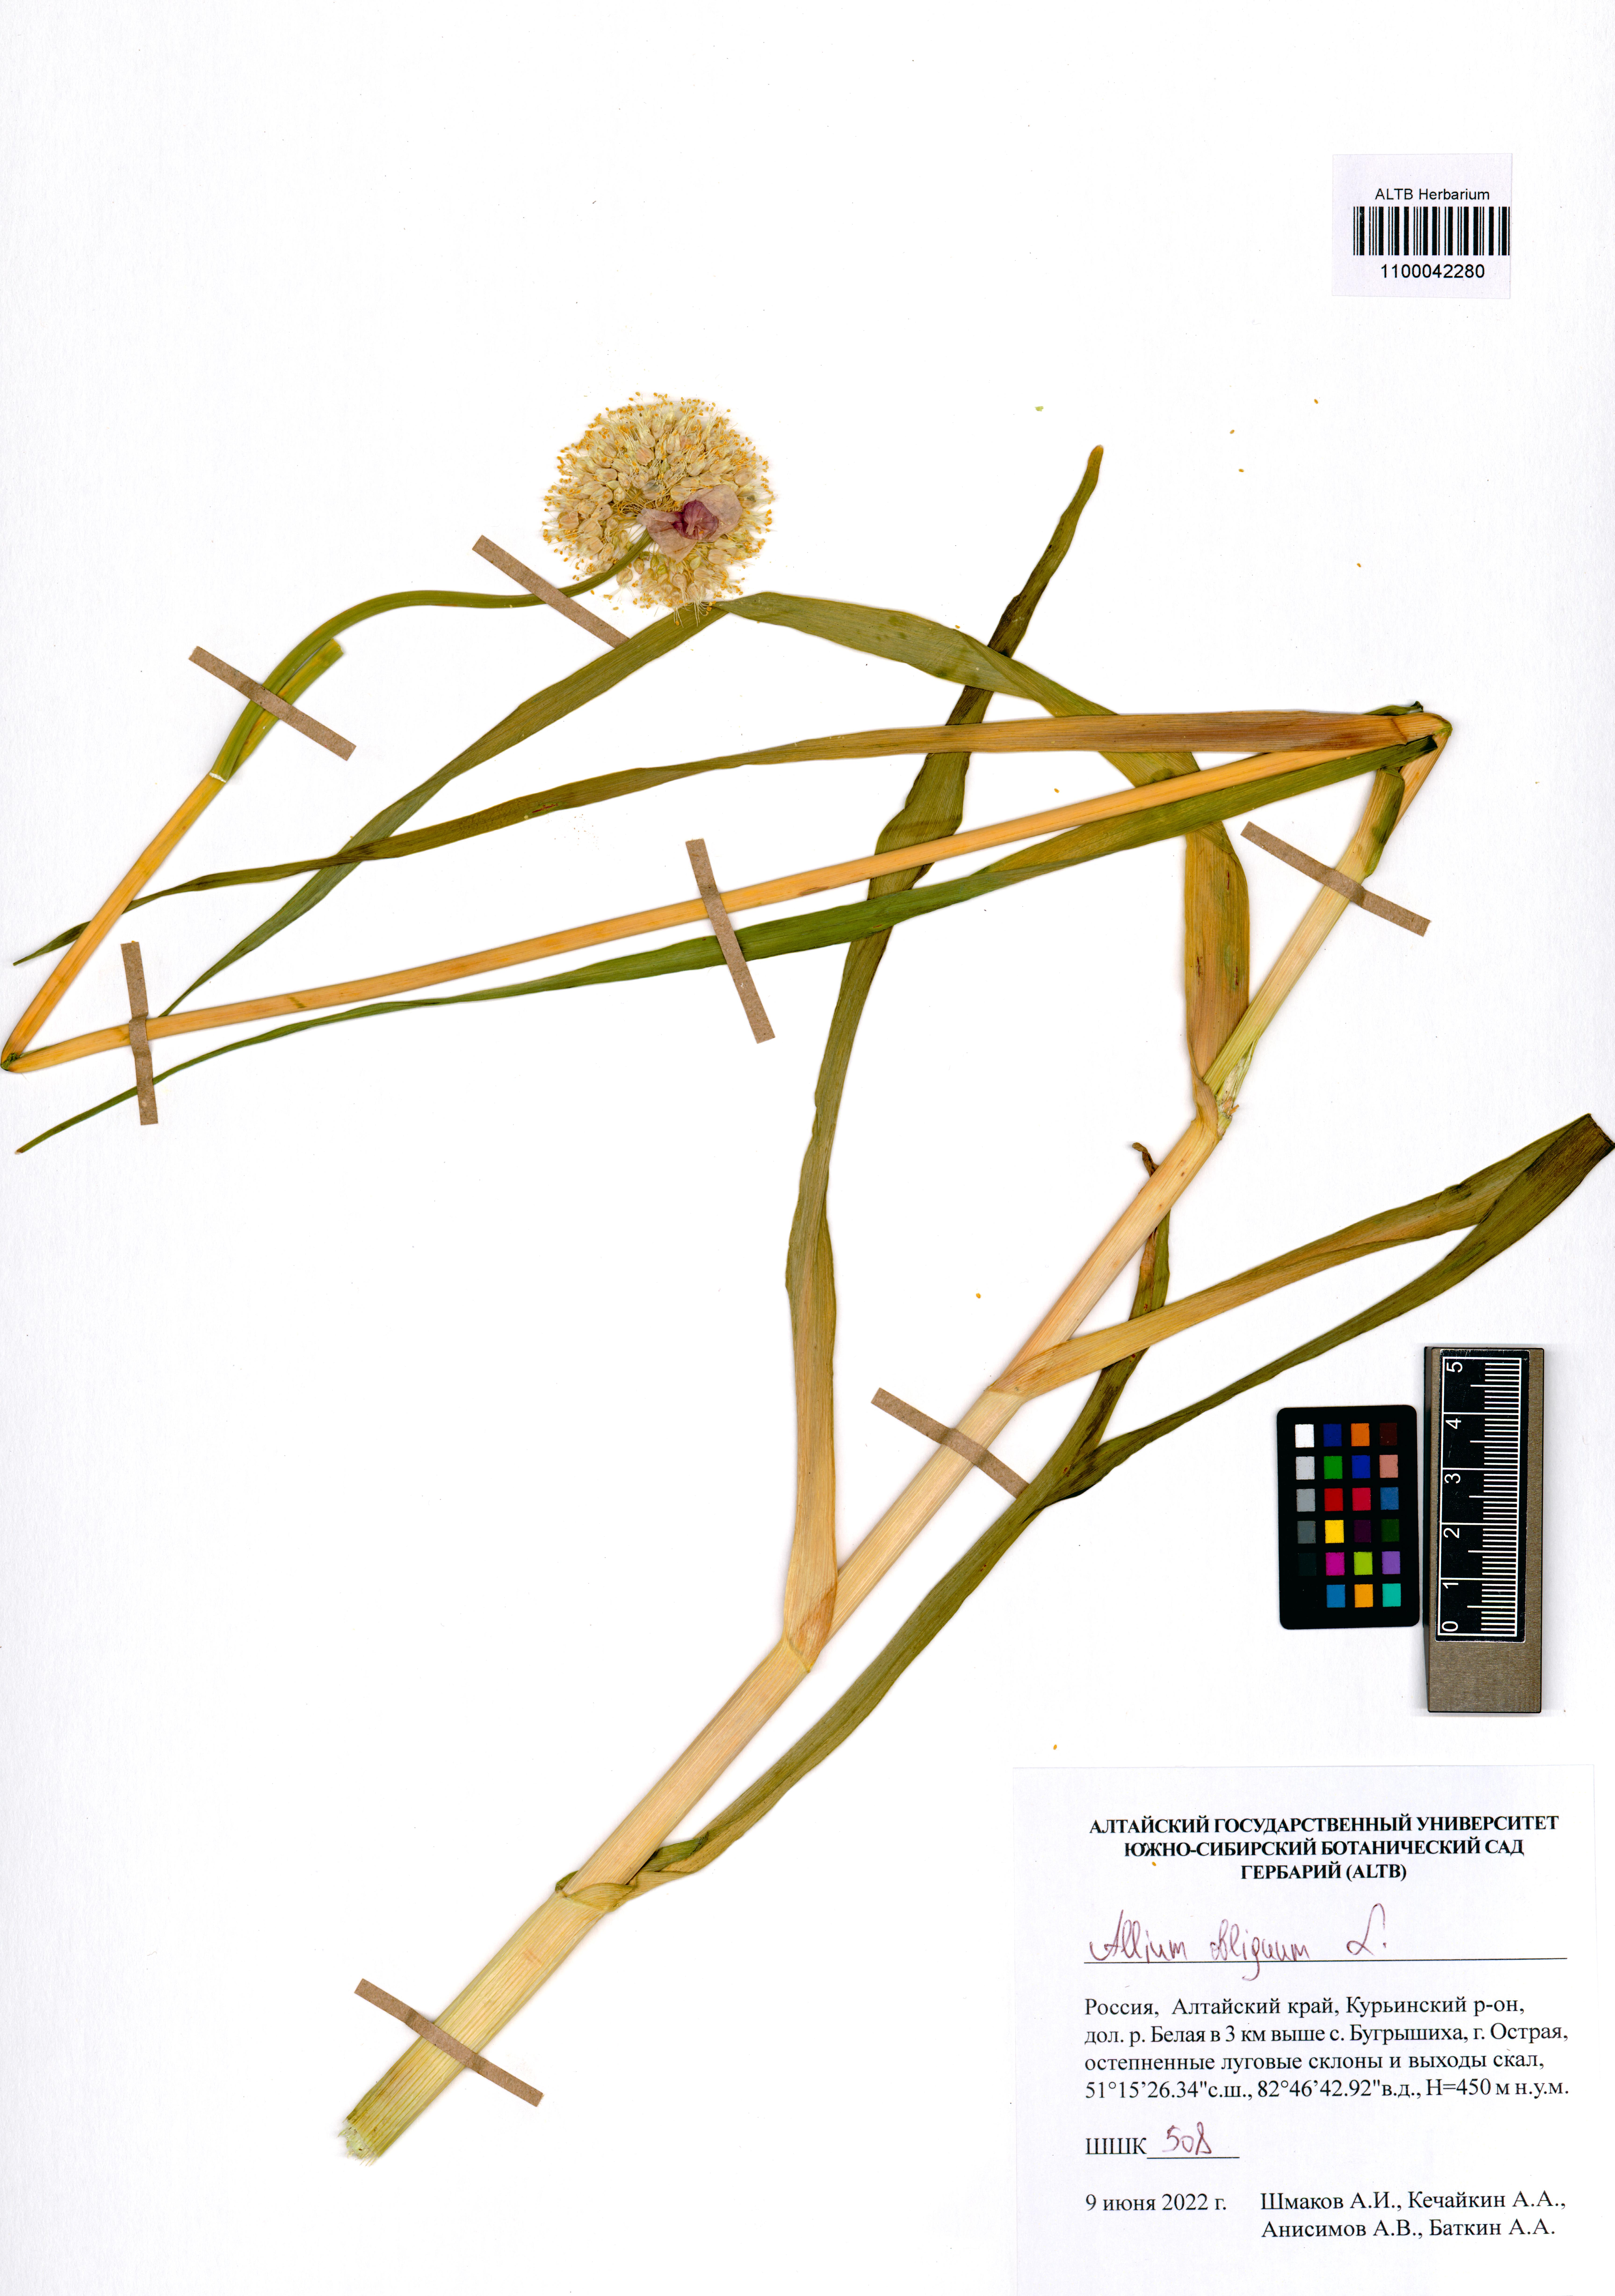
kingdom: Plantae
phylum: Tracheophyta
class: Liliopsida
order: Asparagales
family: Amaryllidaceae
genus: Allium
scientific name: Allium obliquum
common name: Oblique onion
